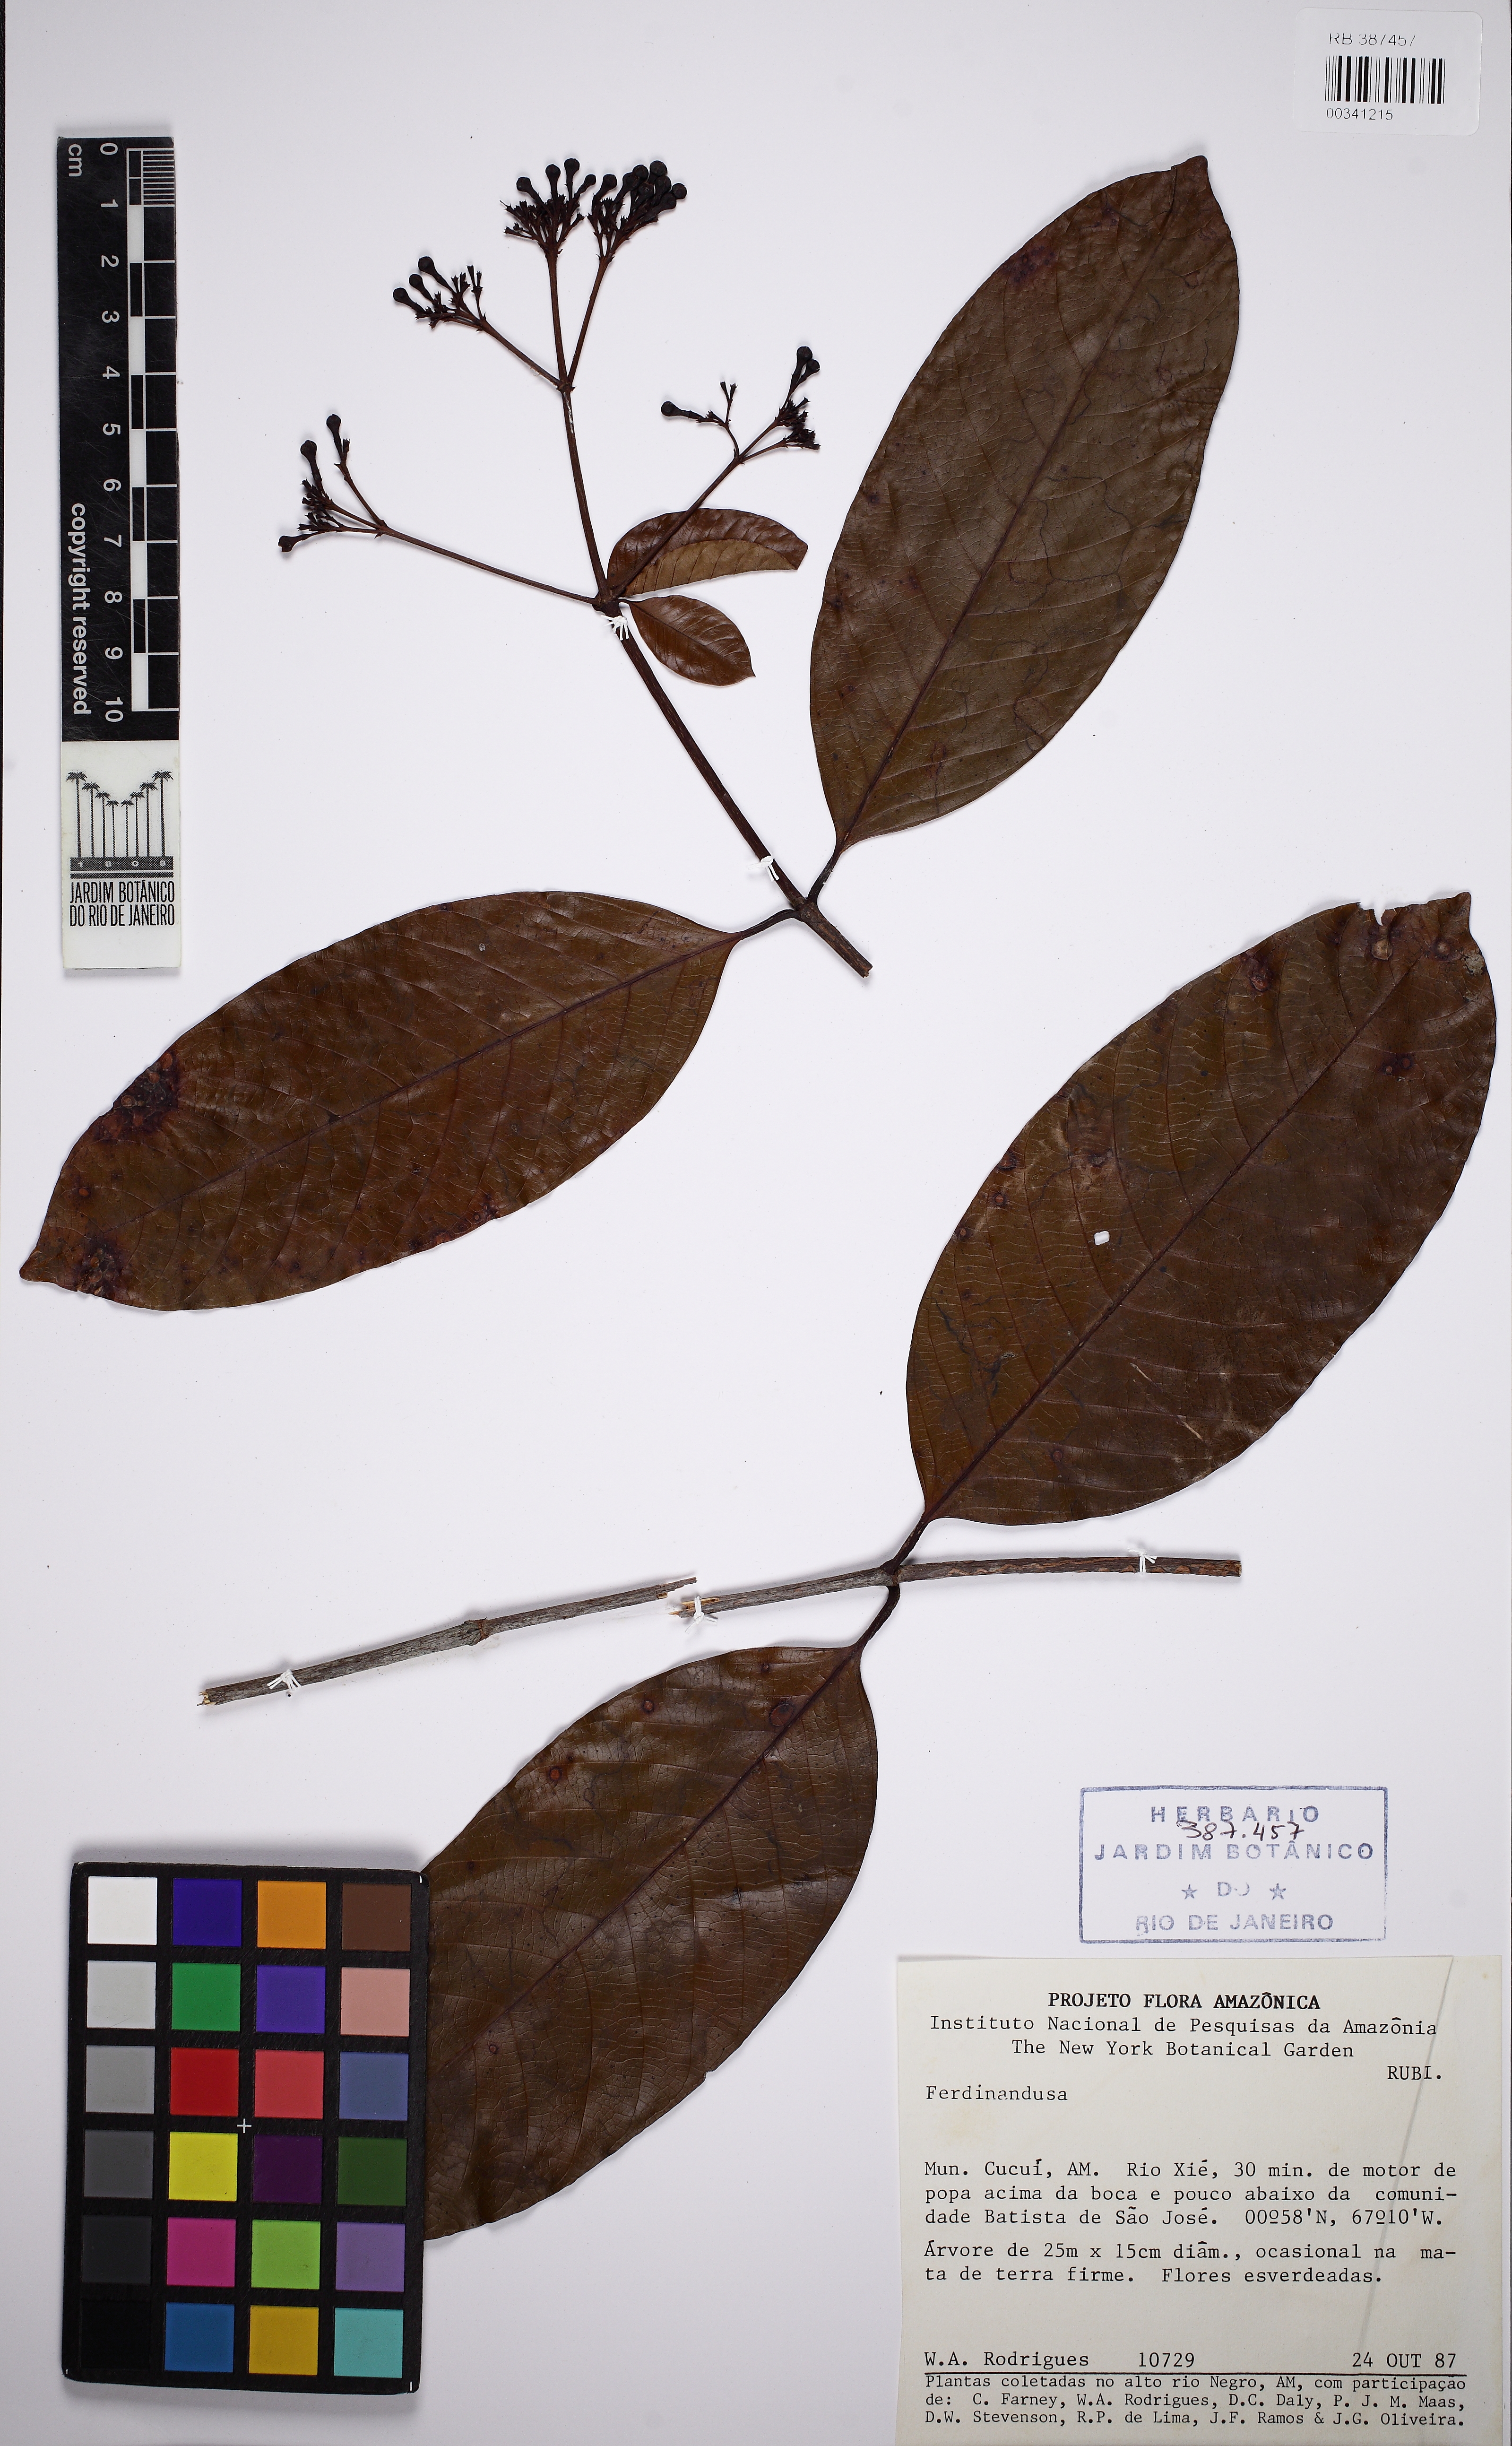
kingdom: Plantae
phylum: Tracheophyta
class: Magnoliopsida
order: Gentianales
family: Rubiaceae
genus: Ferdinandusa
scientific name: Ferdinandusa chlorantha
